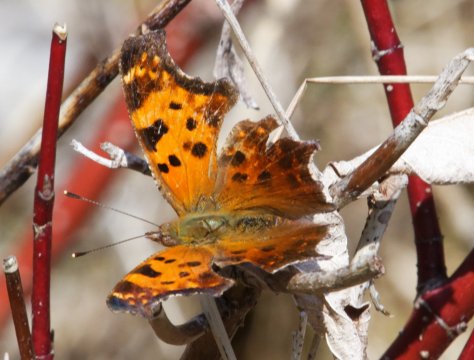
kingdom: Animalia
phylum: Arthropoda
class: Insecta
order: Lepidoptera
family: Nymphalidae
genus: Polygonia
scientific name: Polygonia comma
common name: Eastern Comma
